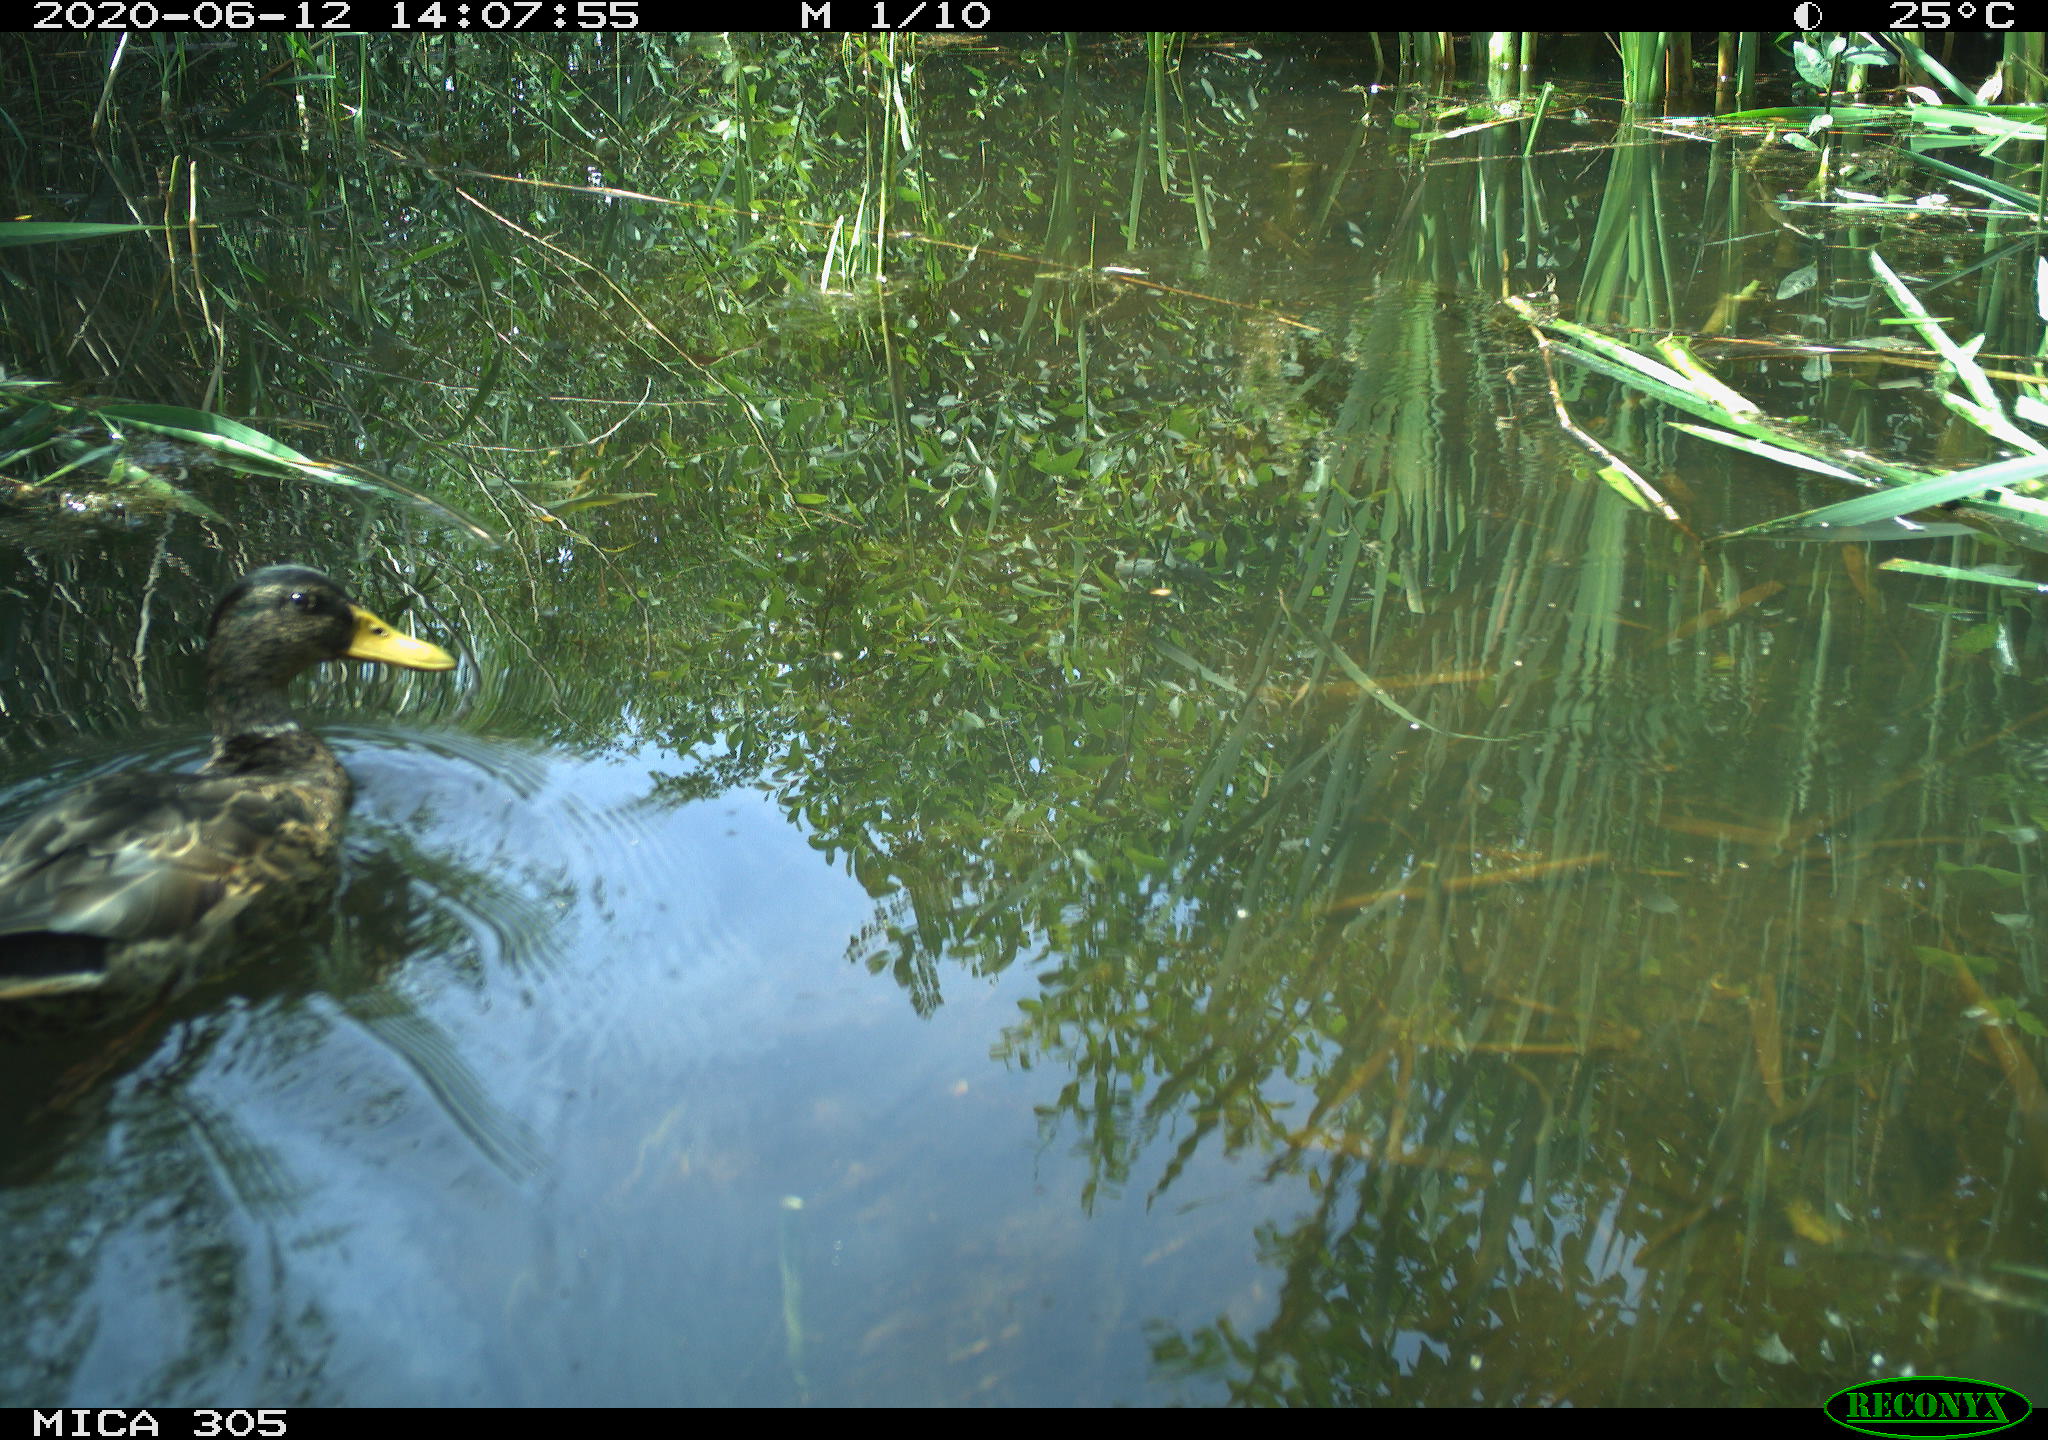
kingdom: Animalia
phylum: Chordata
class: Aves
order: Anseriformes
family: Anatidae
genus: Anas
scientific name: Anas platyrhynchos
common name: Mallard
